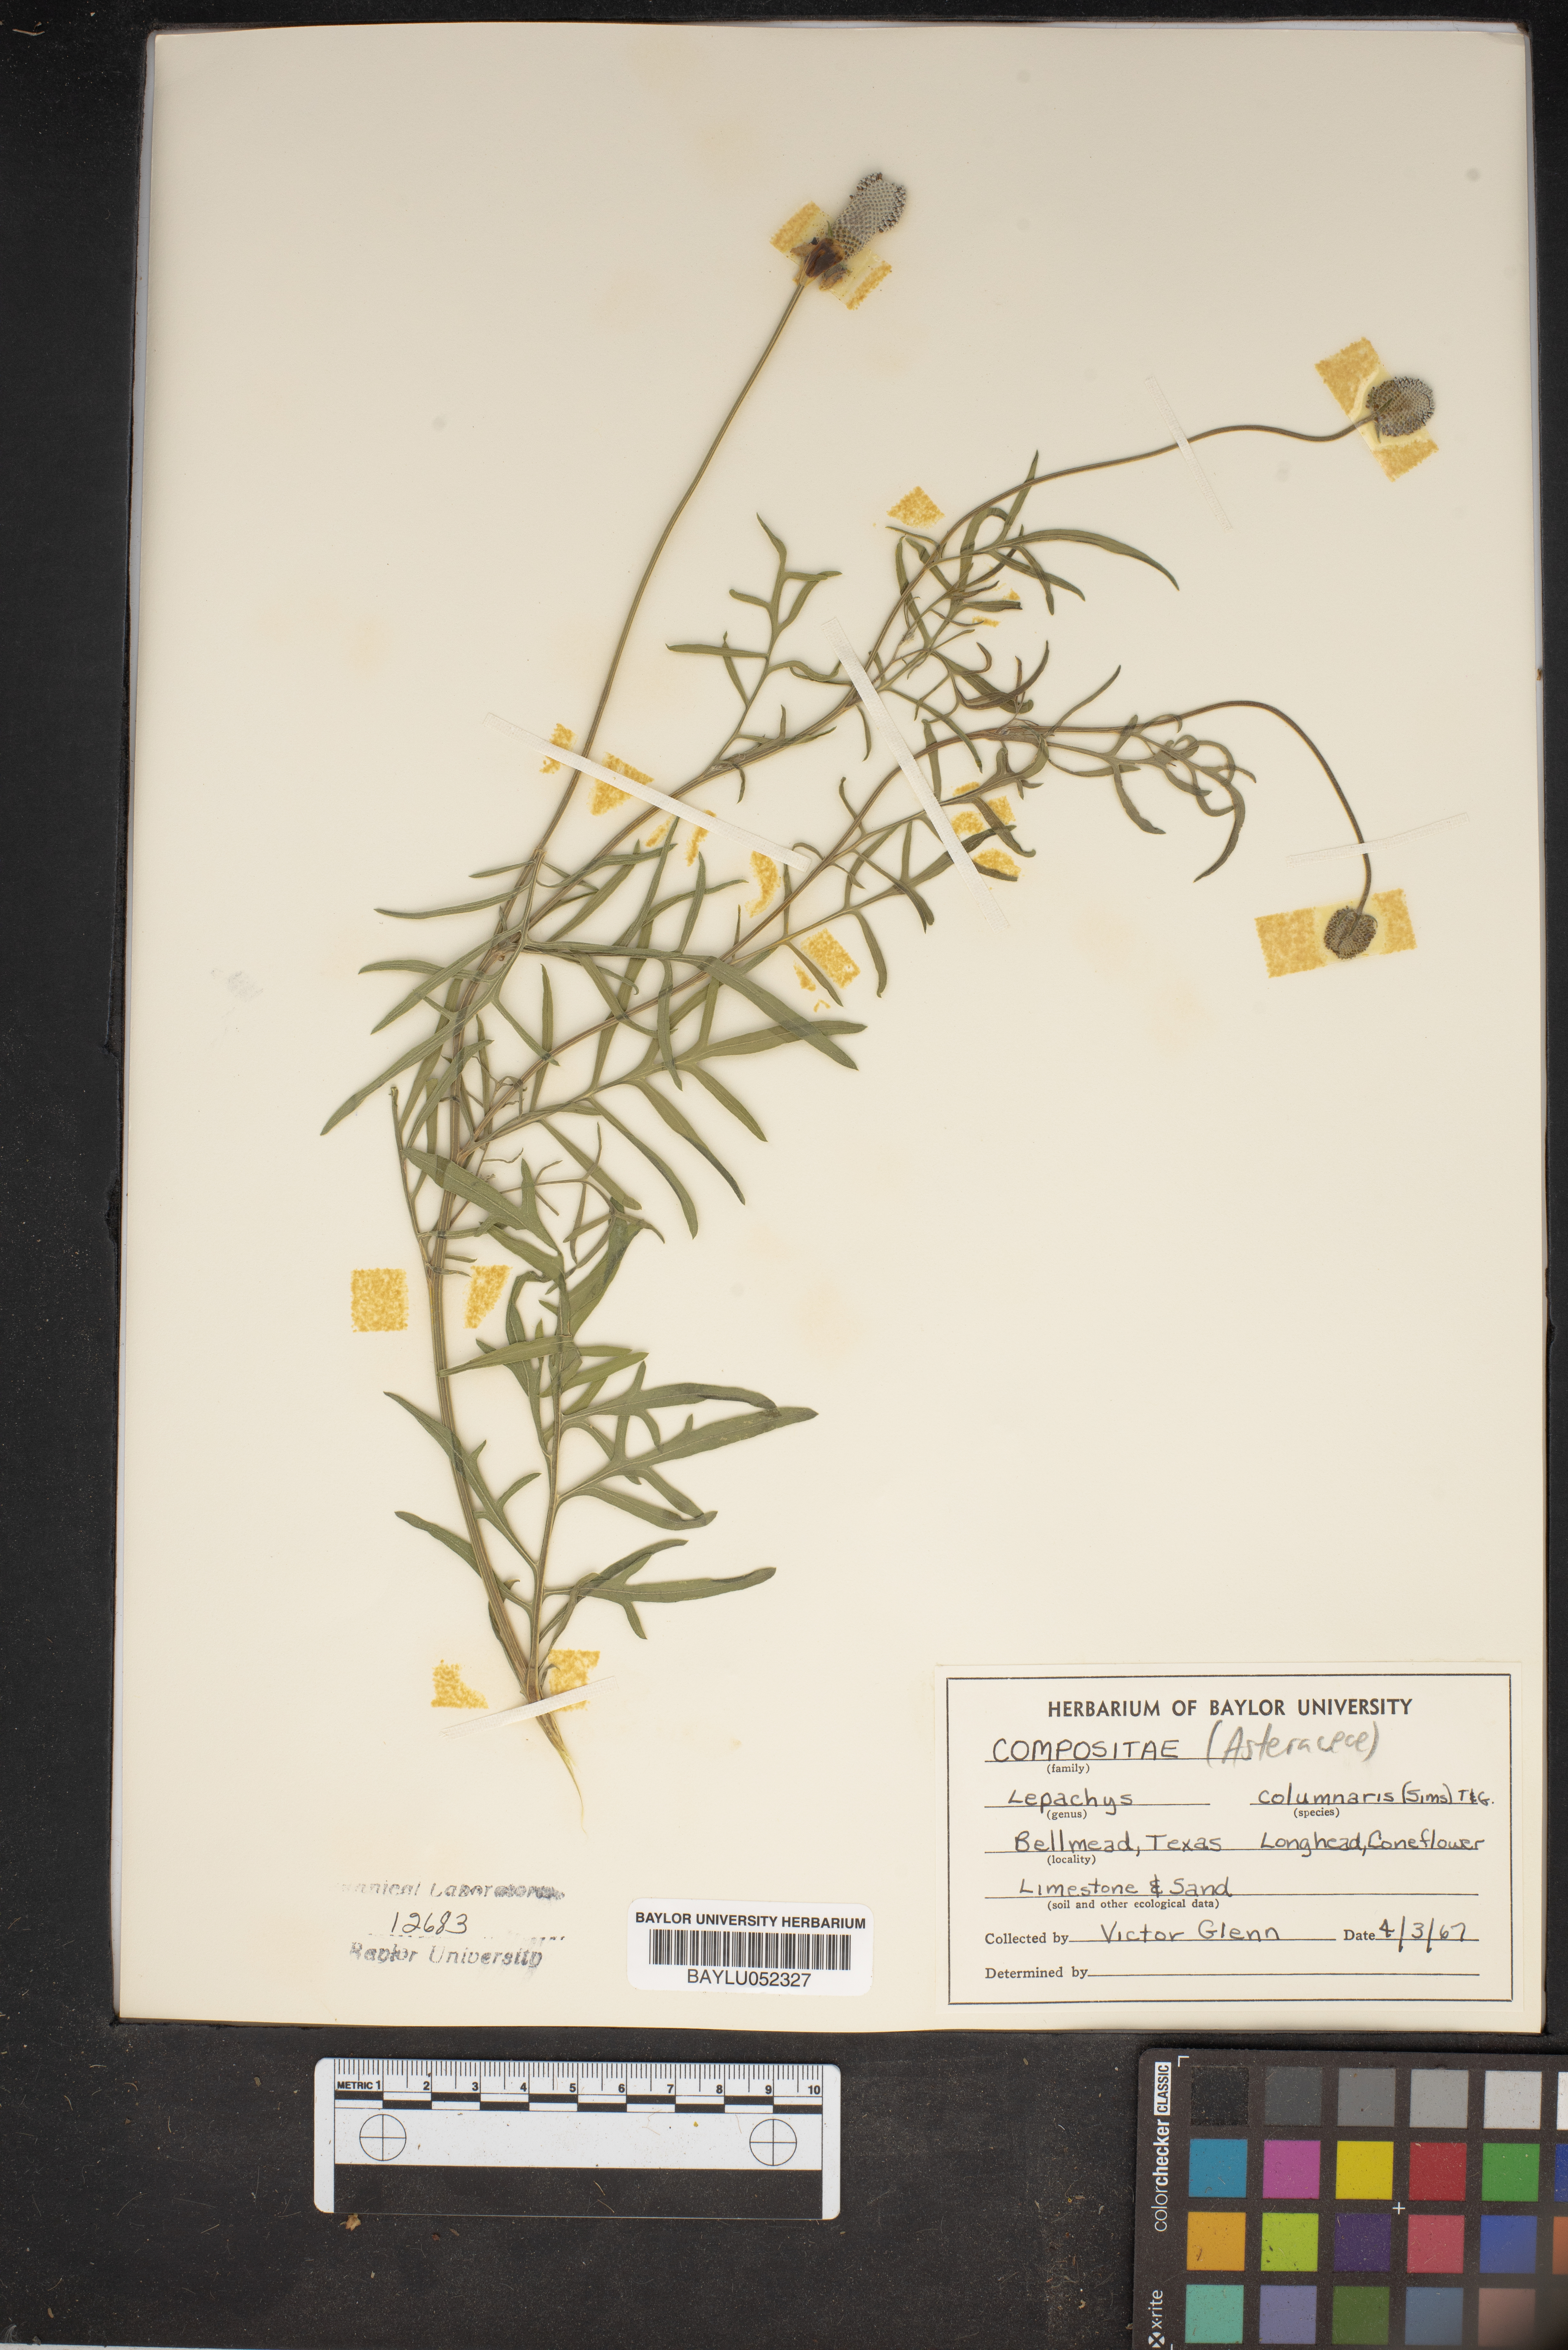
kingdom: Plantae
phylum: Tracheophyta
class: Magnoliopsida
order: Asterales
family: Asteraceae
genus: Ratibida
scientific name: Ratibida columnifera
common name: Prairie coneflower
